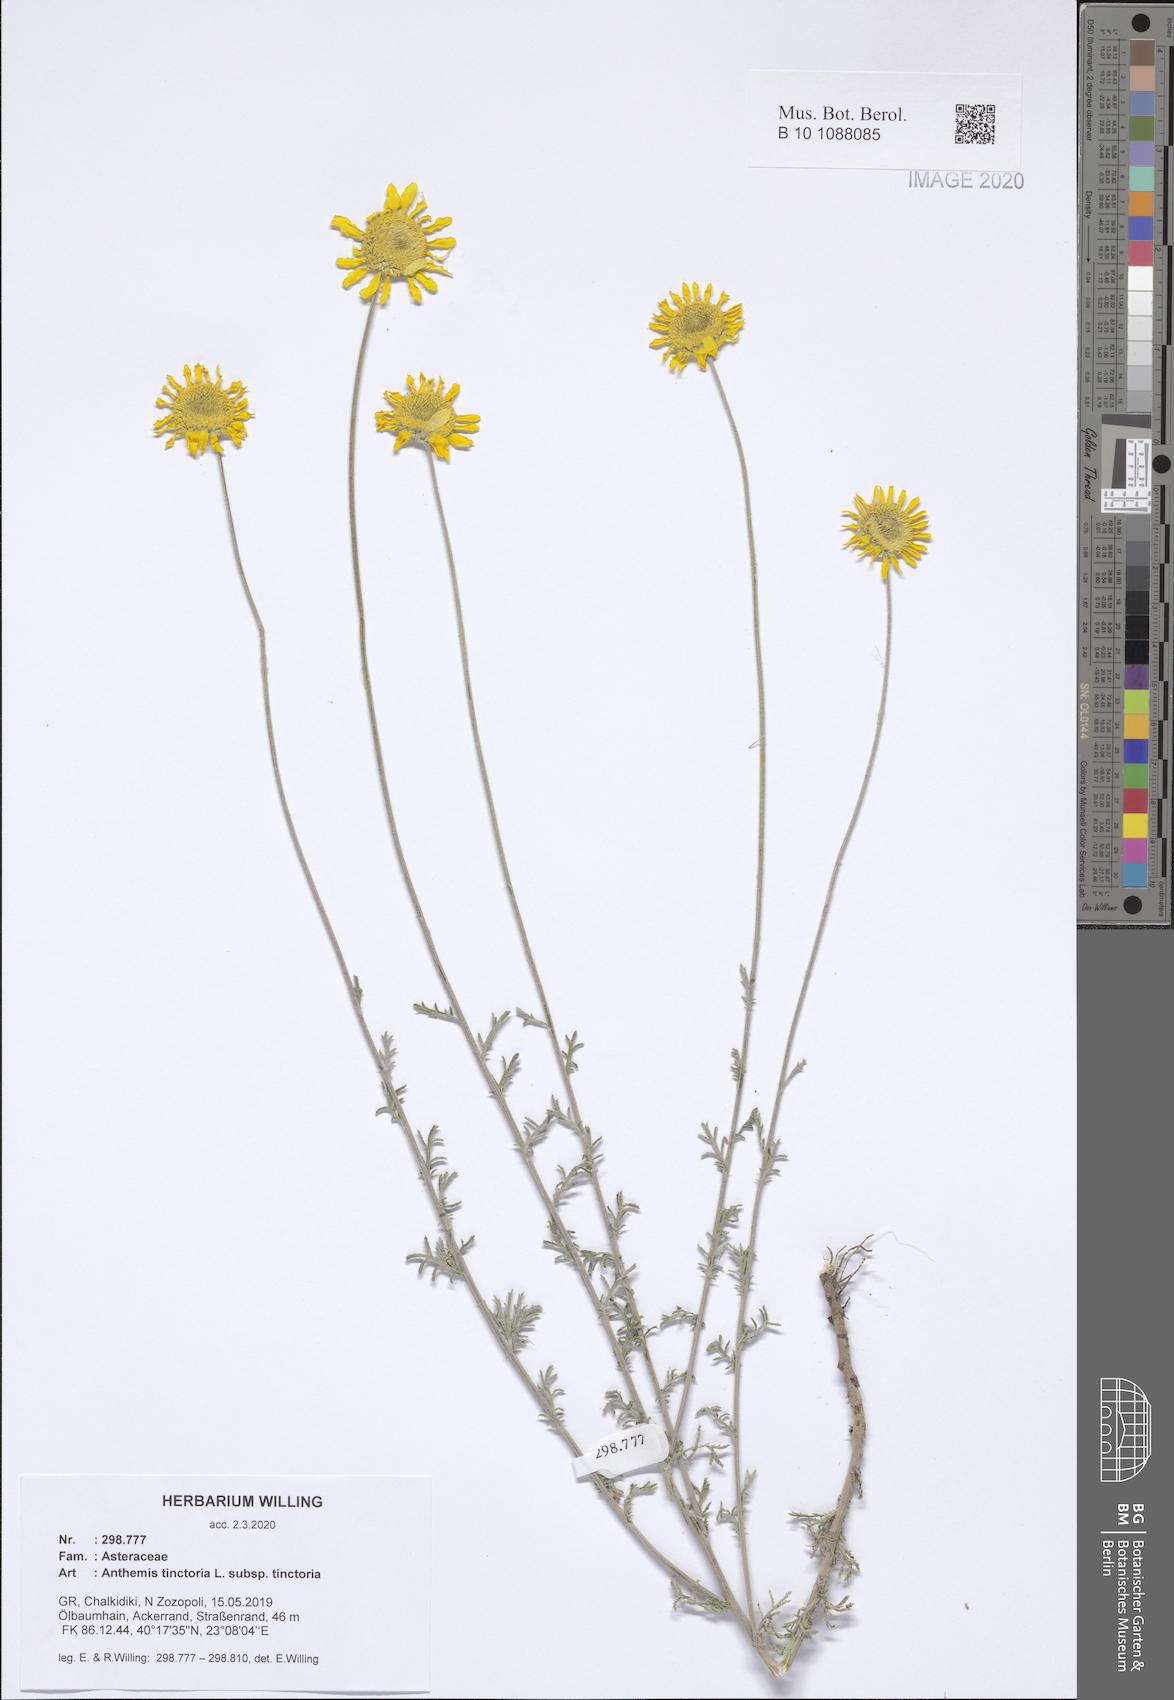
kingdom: Plantae
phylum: Tracheophyta
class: Magnoliopsida
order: Asterales
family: Asteraceae
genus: Cota
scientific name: Cota tinctoria
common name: Golden chamomile
